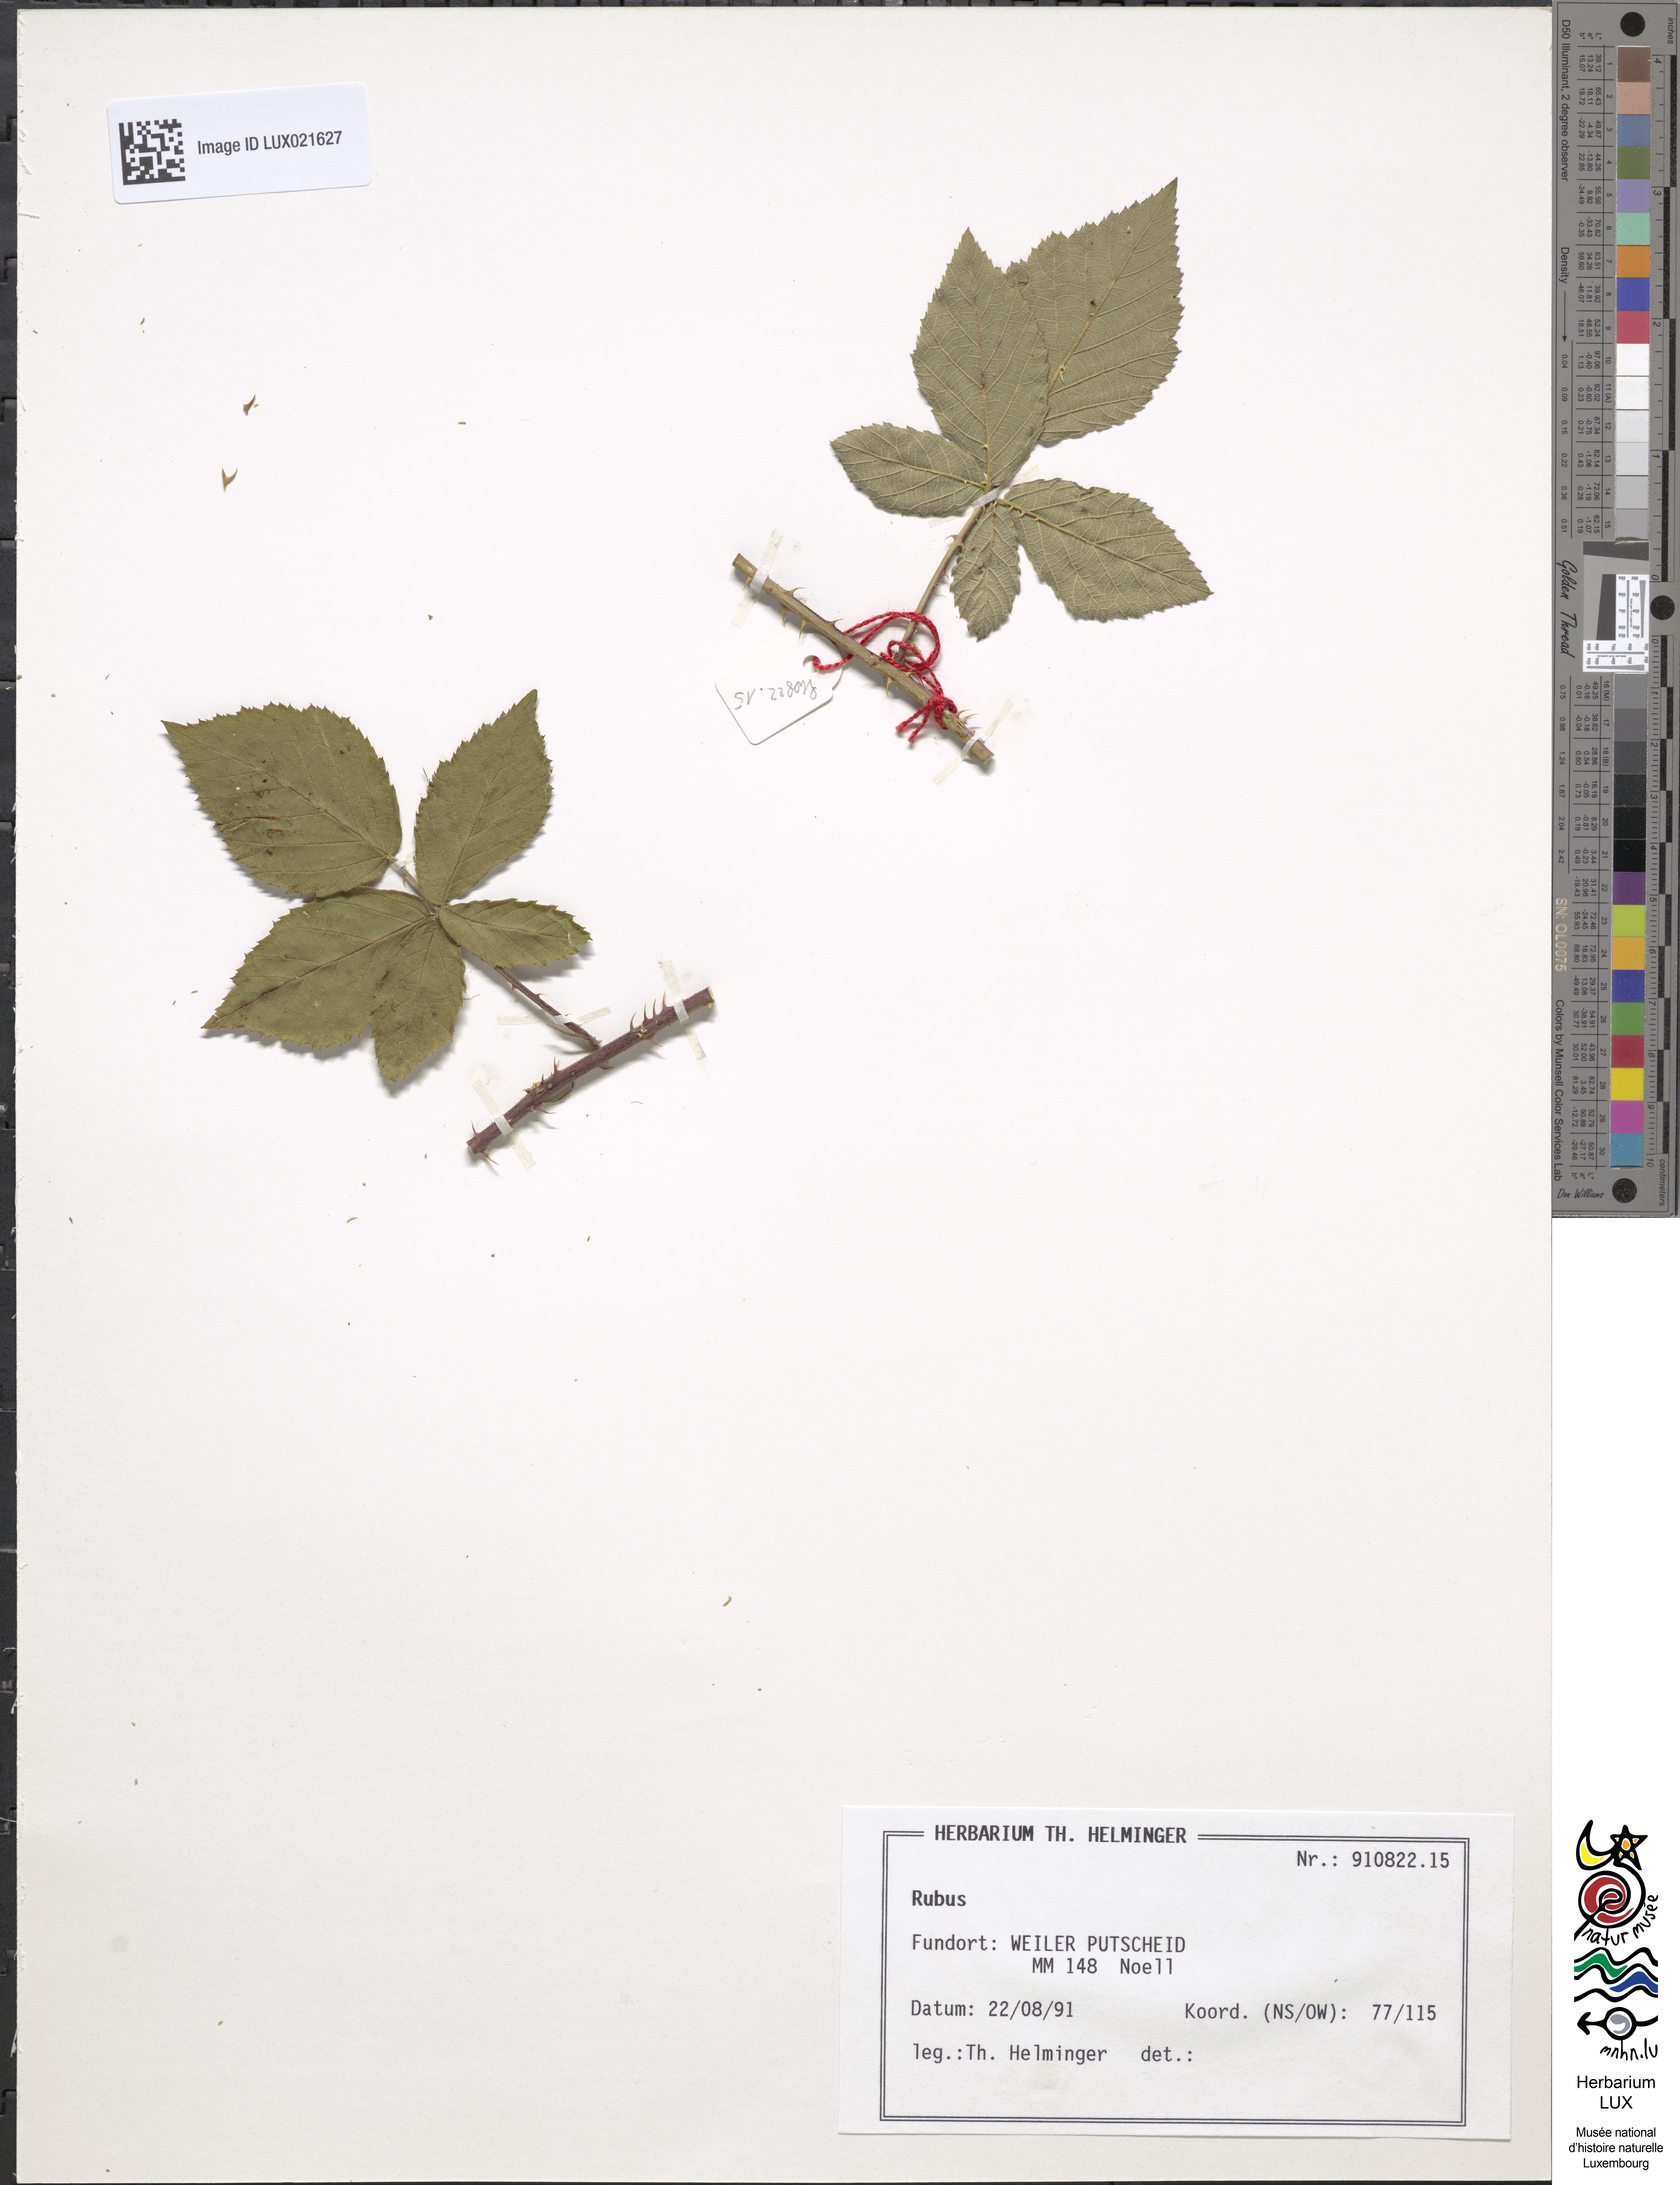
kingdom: Plantae
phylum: Tracheophyta
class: Magnoliopsida
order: Rosales
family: Rosaceae
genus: Rubus
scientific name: Rubus
